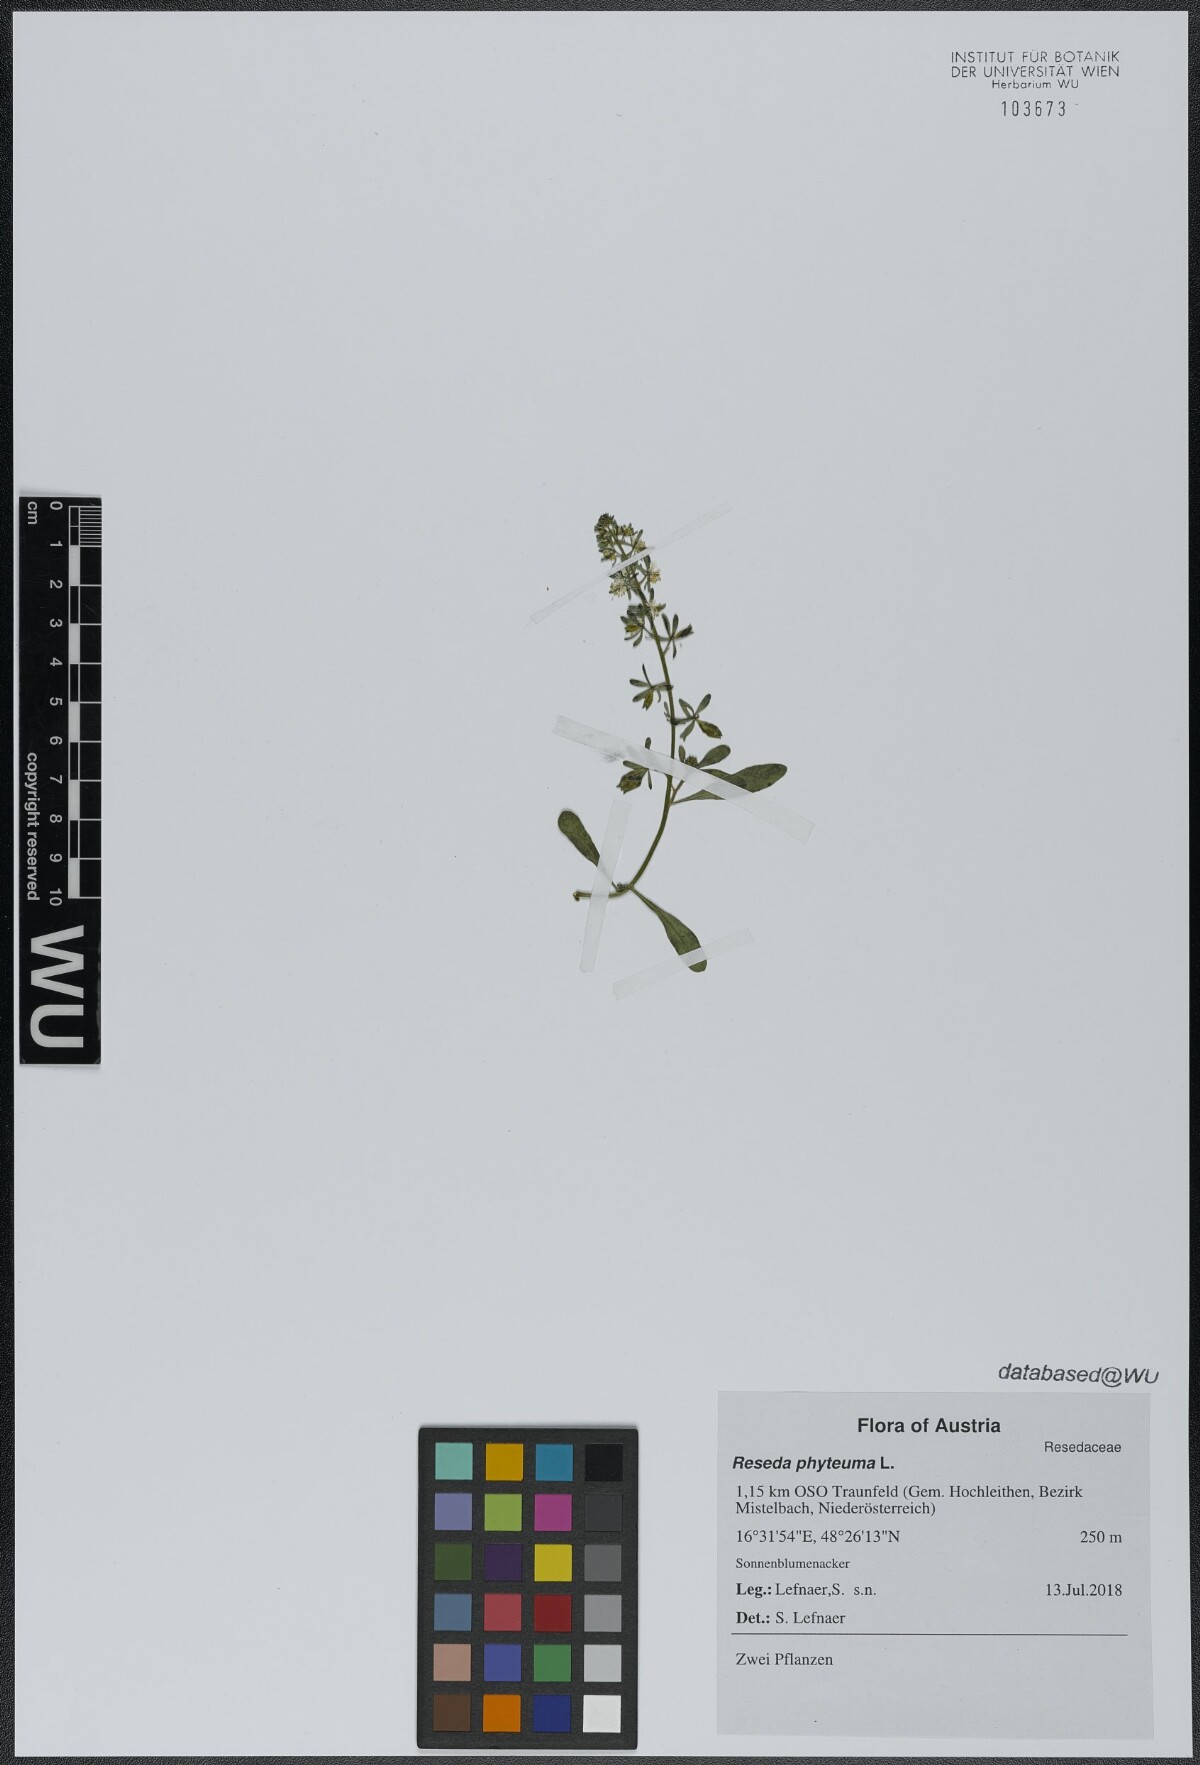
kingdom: Plantae
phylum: Tracheophyta
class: Magnoliopsida
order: Brassicales
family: Resedaceae
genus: Reseda
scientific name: Reseda phyteuma
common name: Corn mignonette
